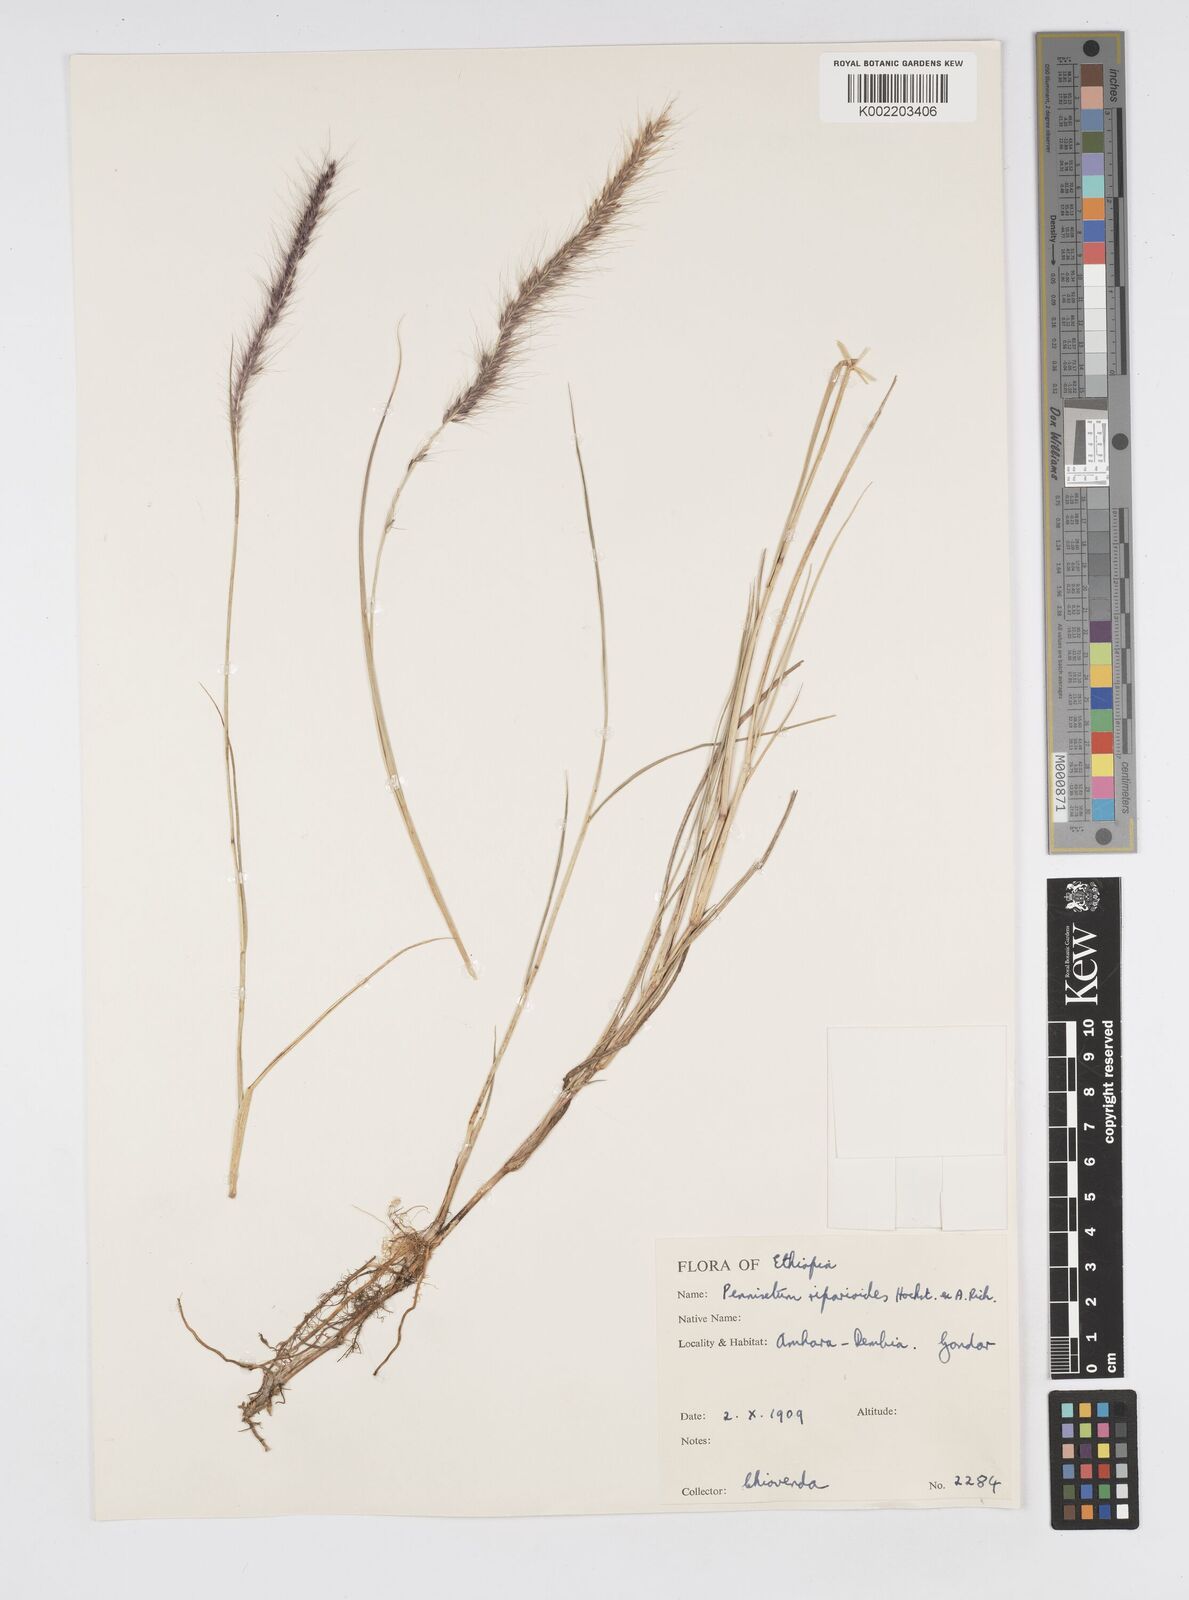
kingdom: Plantae
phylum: Tracheophyta
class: Liliopsida
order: Poales
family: Poaceae
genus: Cenchrus
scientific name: Cenchrus caudatus
